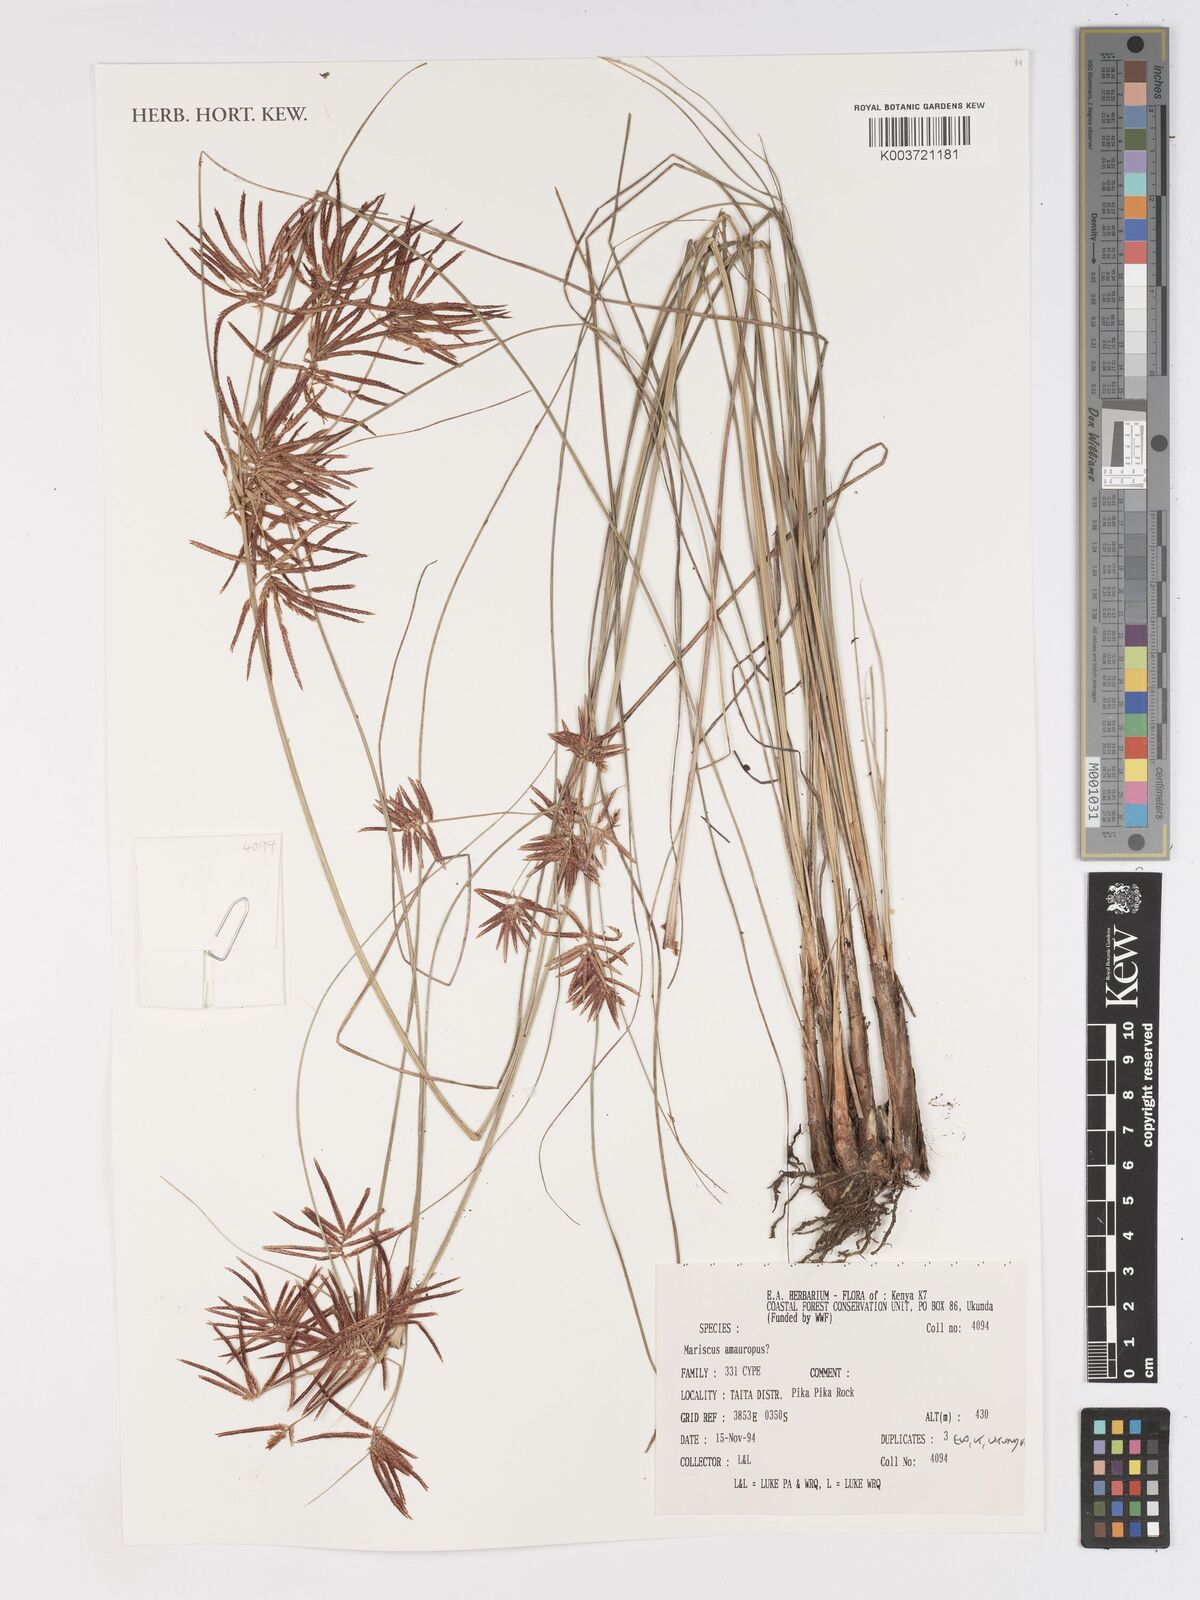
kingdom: Plantae
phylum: Tracheophyta
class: Liliopsida
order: Poales
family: Cyperaceae
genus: Cyperus
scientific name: Cyperus amauropus
